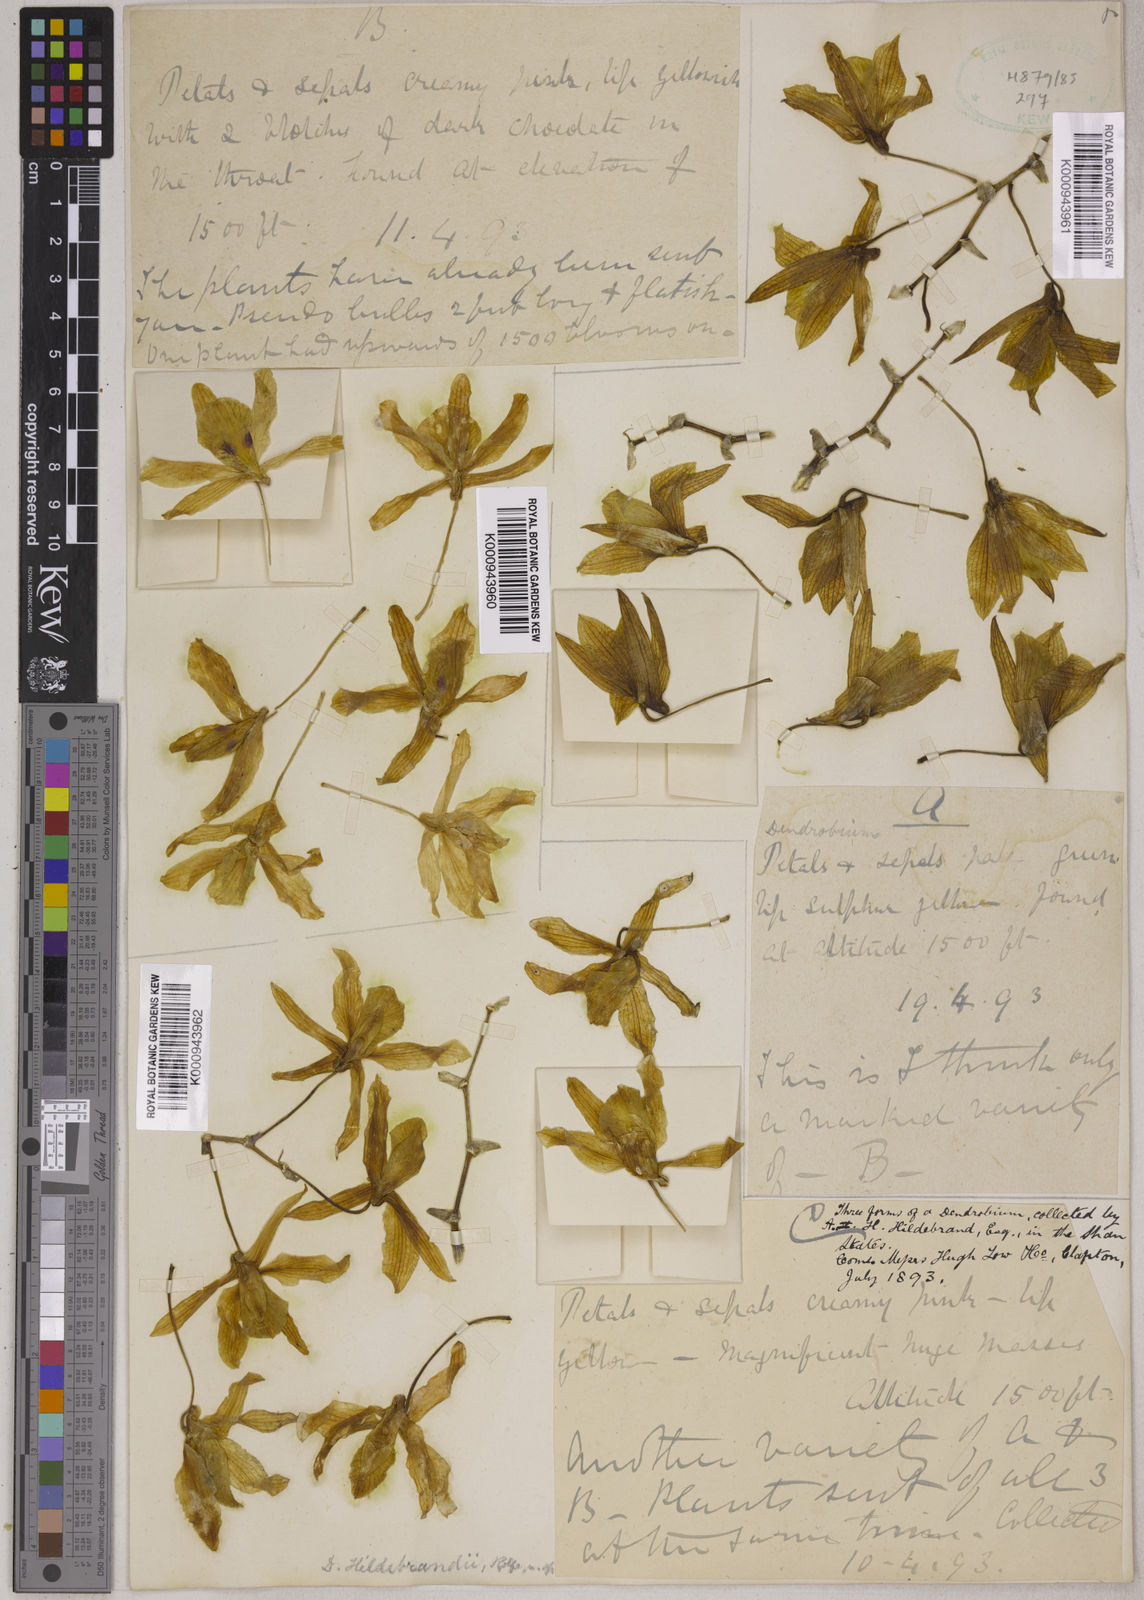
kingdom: Plantae
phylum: Tracheophyta
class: Liliopsida
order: Asparagales
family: Orchidaceae
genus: Dendrobium
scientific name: Dendrobium signatum
